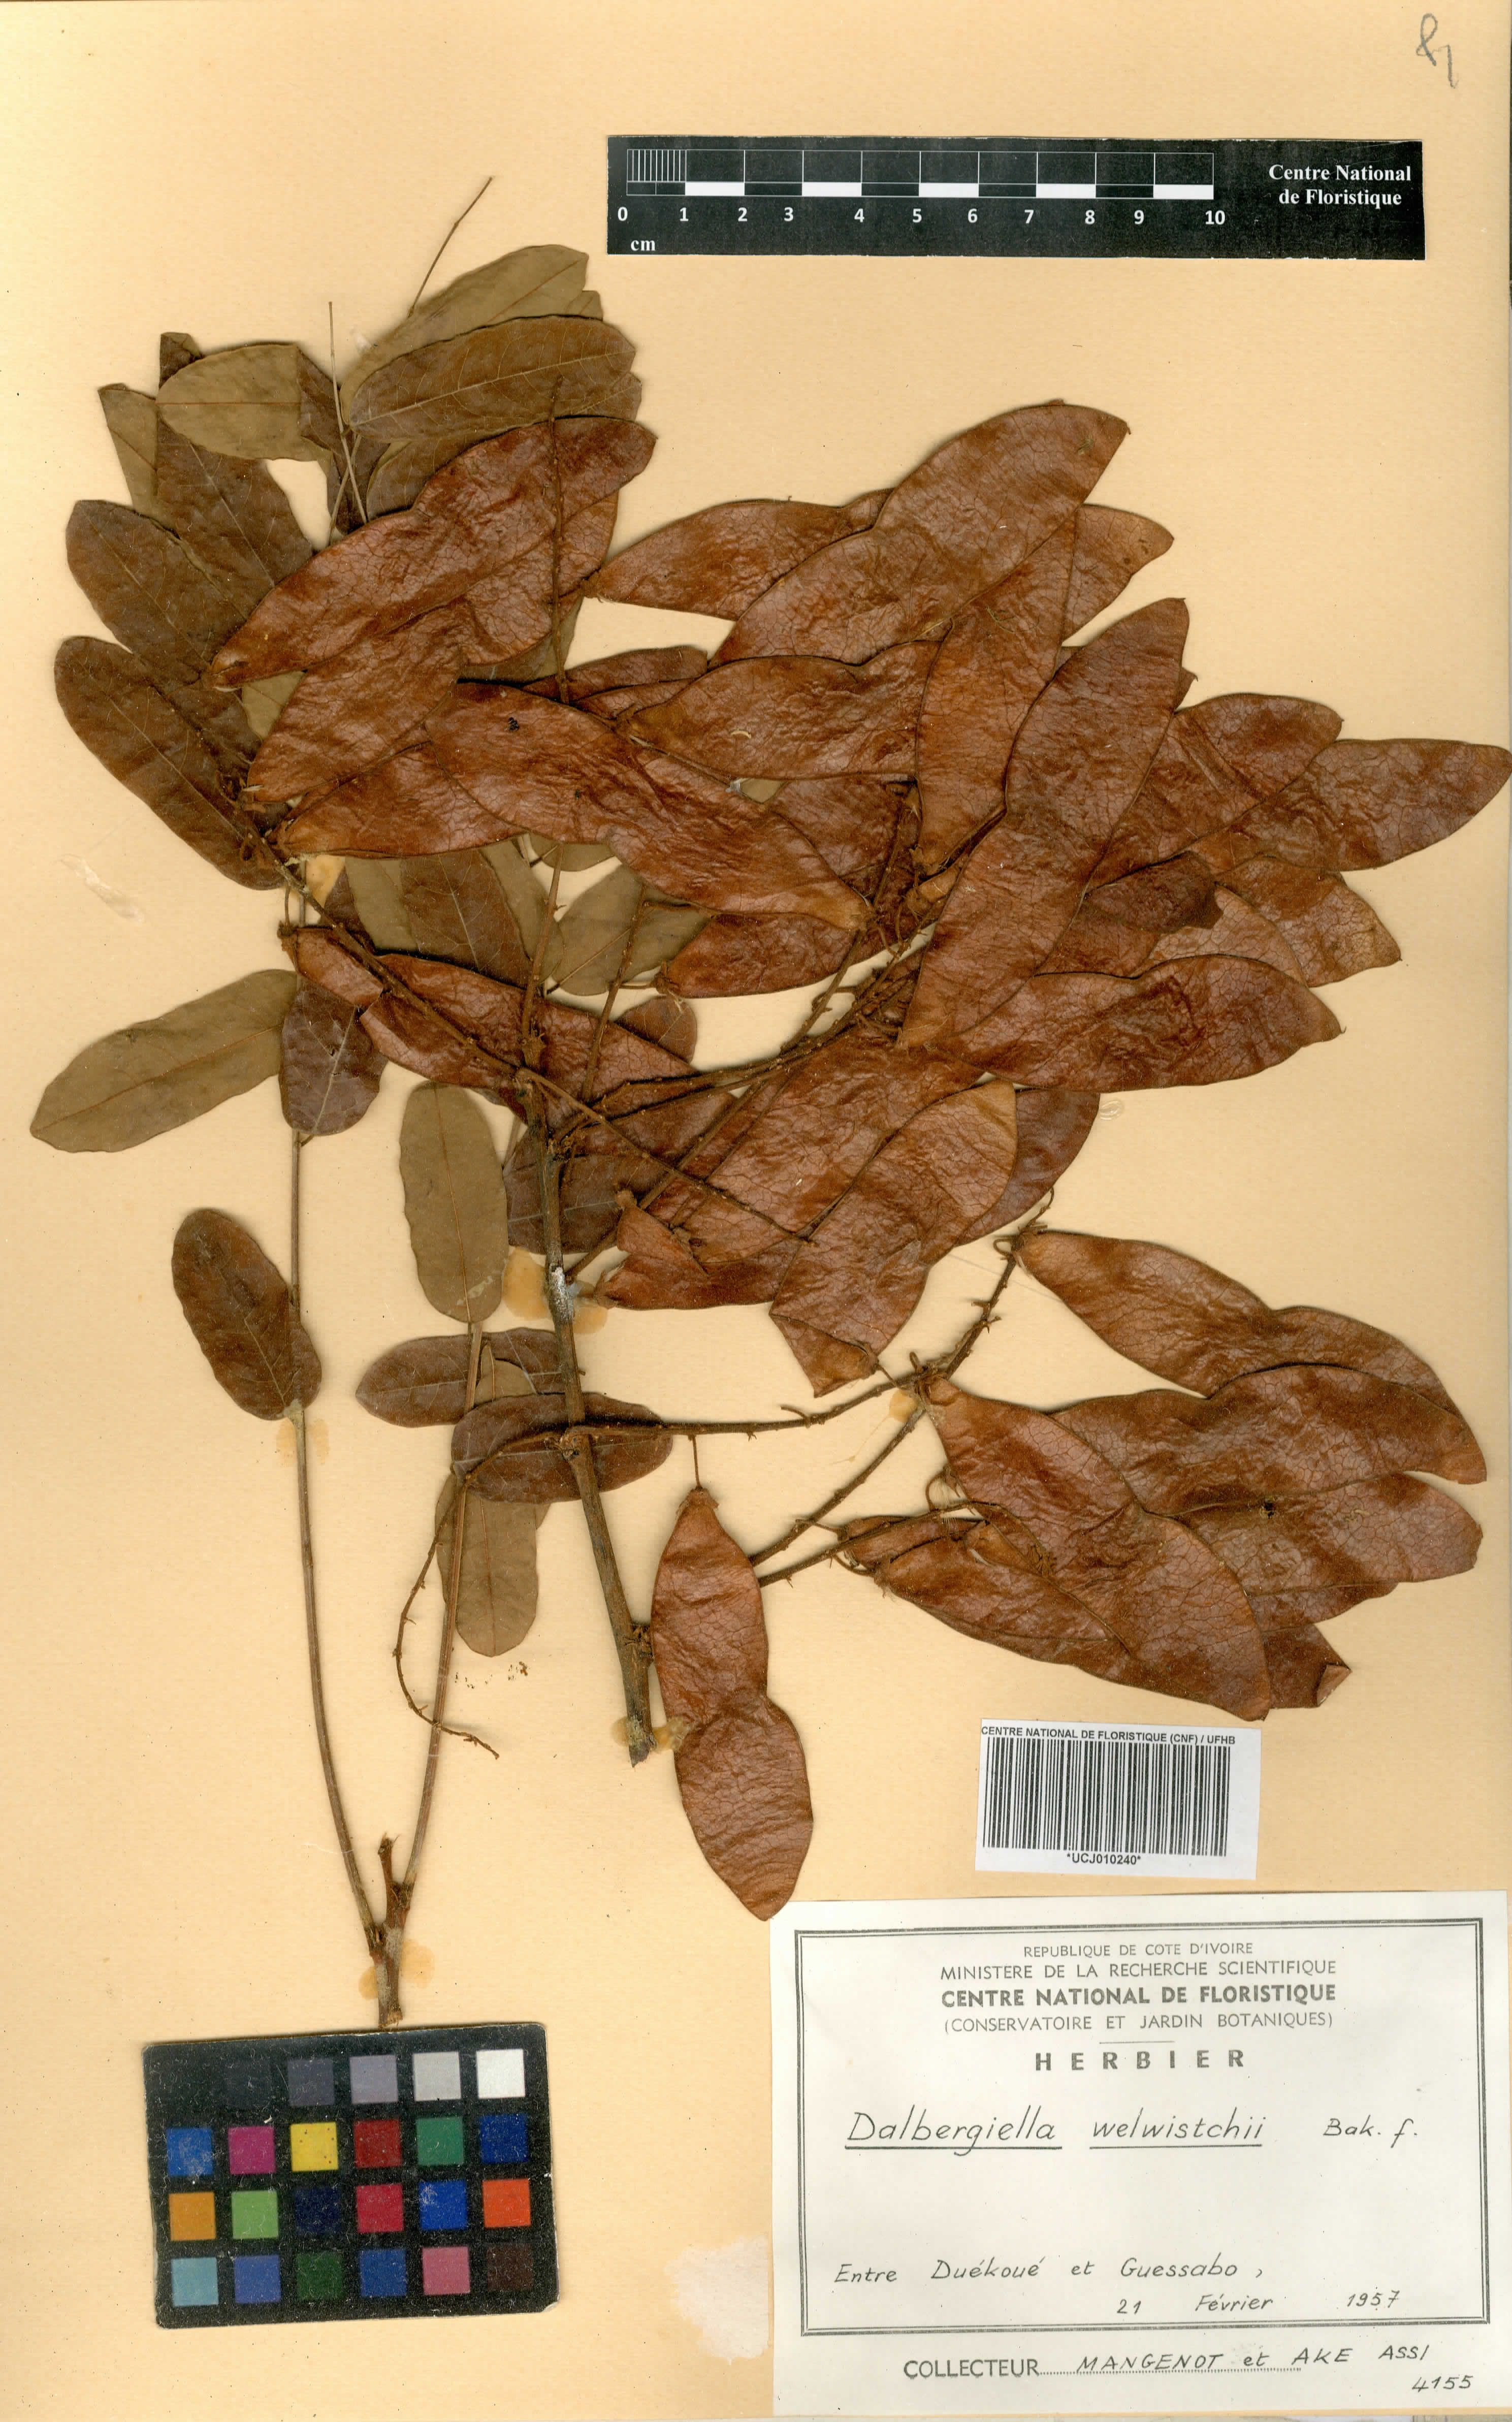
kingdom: Plantae
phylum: Tracheophyta
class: Magnoliopsida
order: Fabales
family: Fabaceae
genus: Dalbergiella
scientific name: Dalbergiella welwitschii
